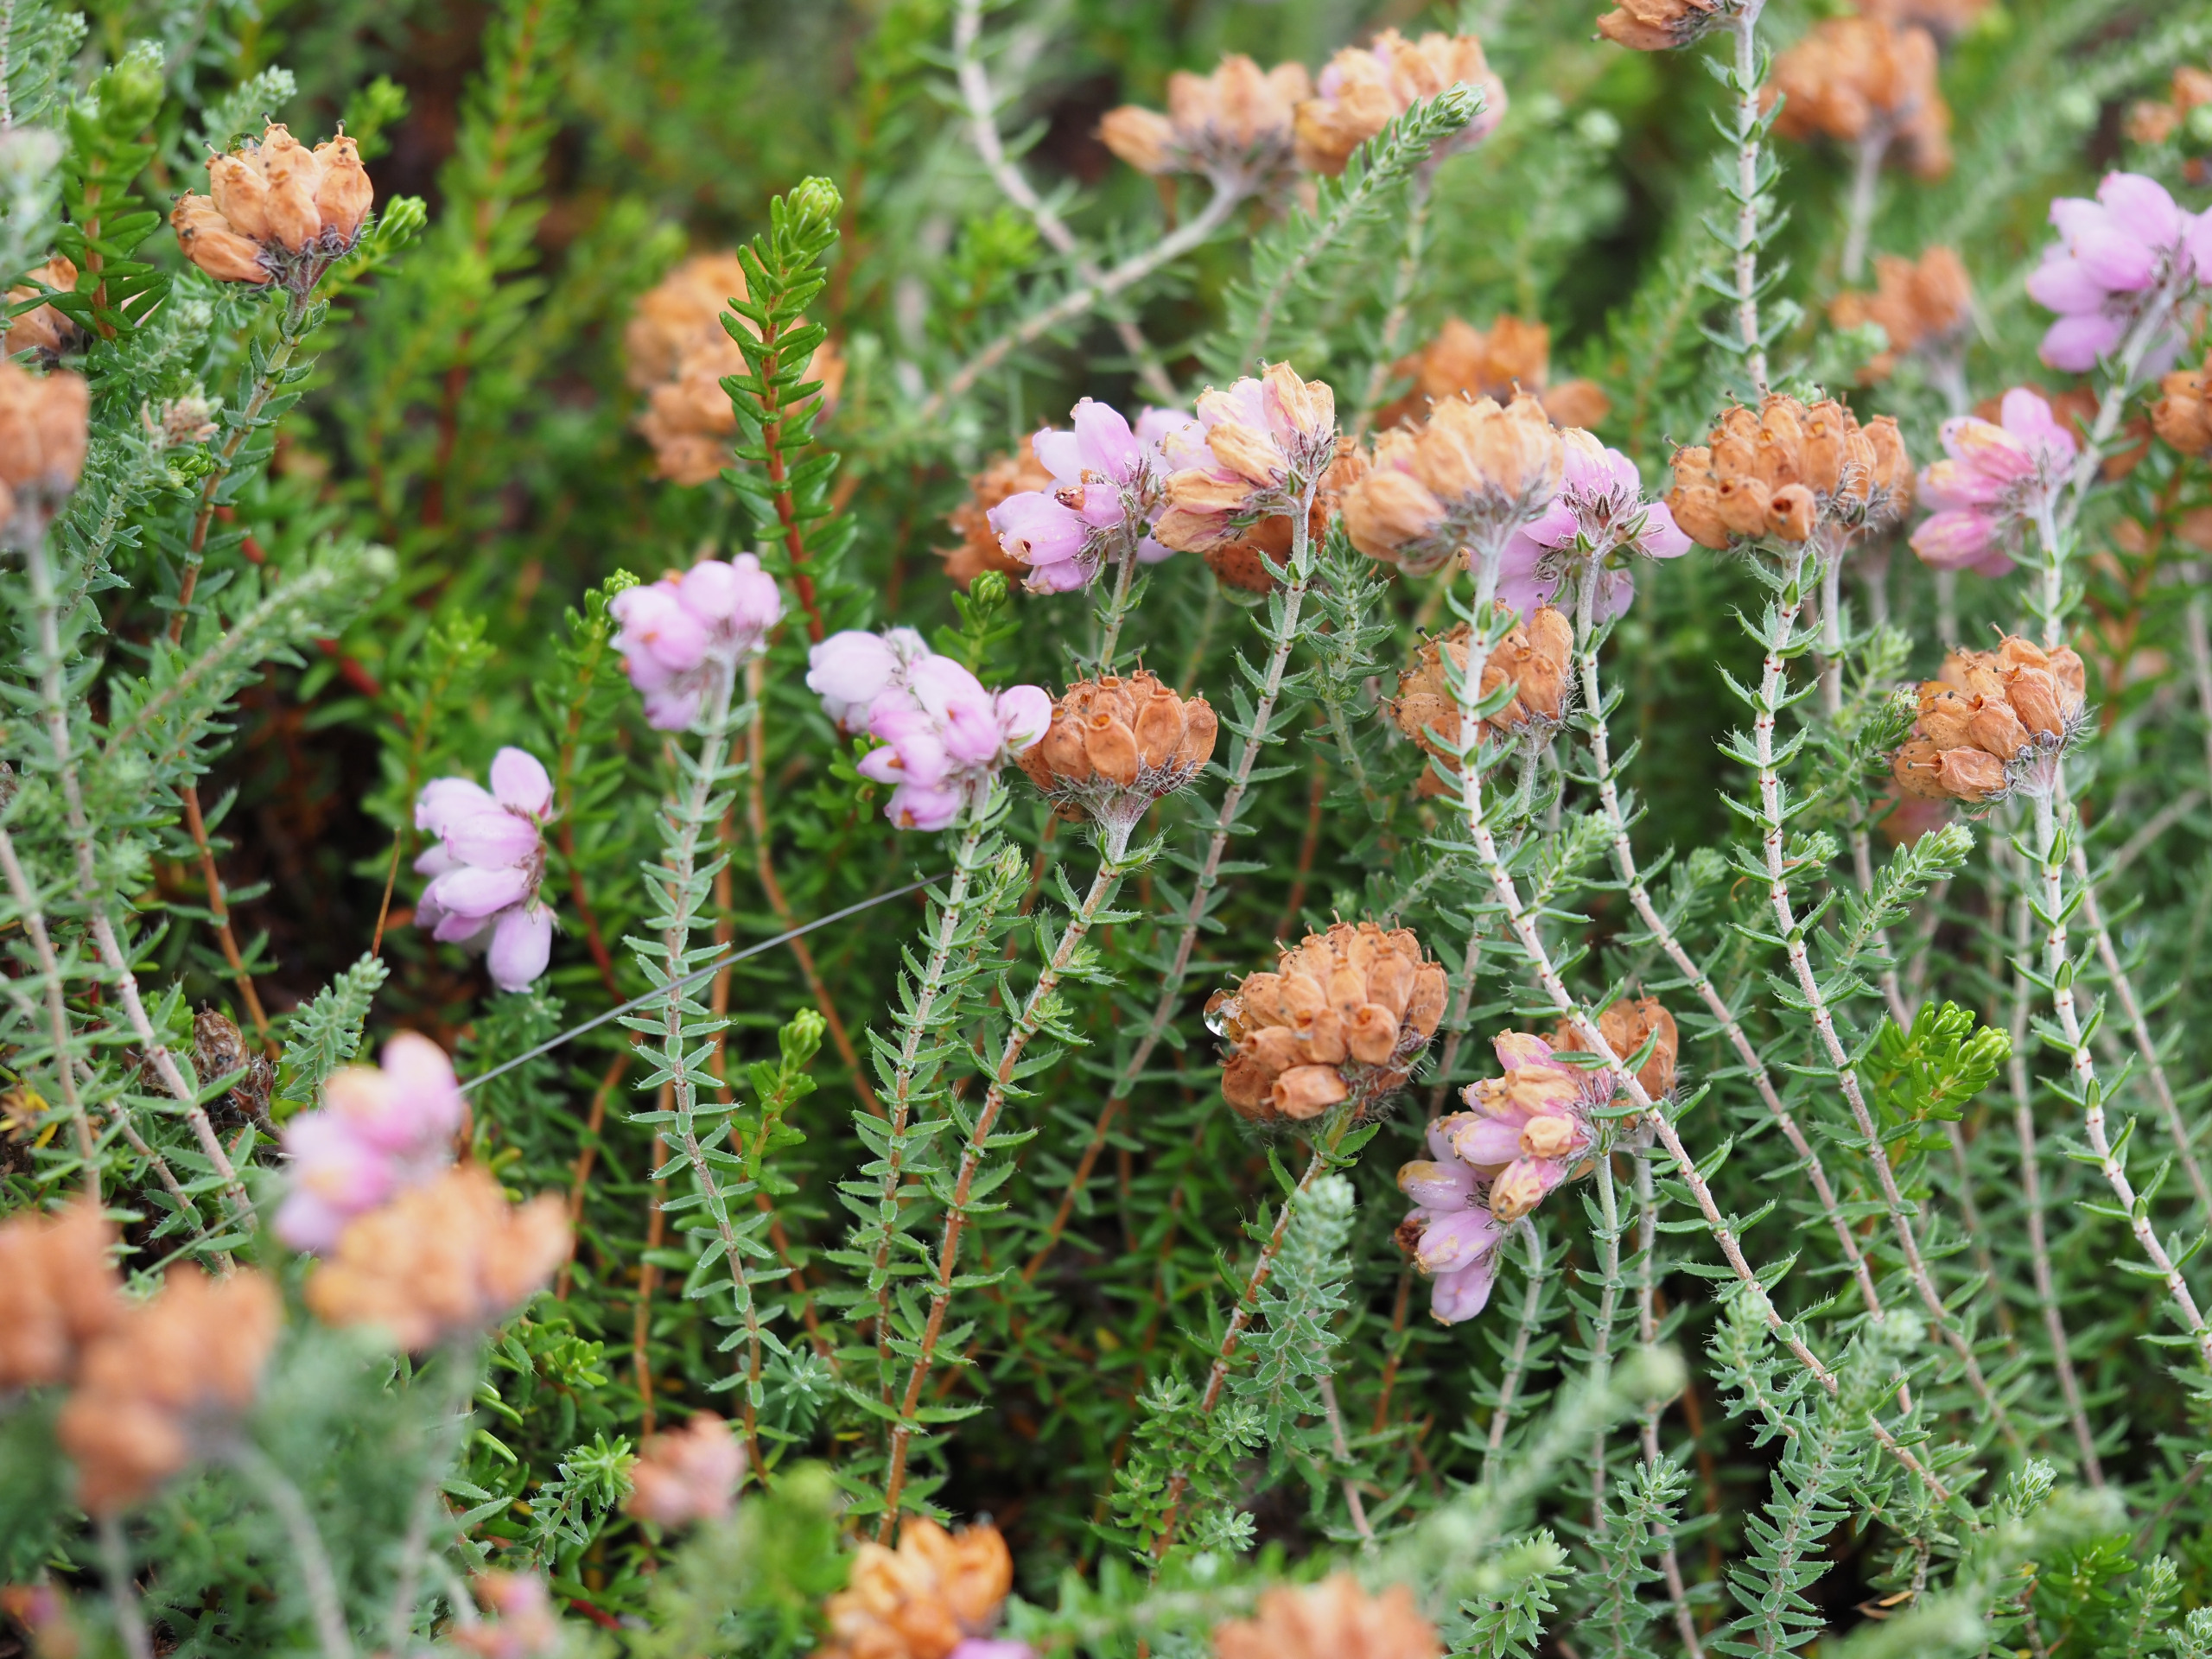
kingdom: Plantae
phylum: Tracheophyta
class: Magnoliopsida
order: Ericales
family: Ericaceae
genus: Erica
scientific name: Erica tetralix
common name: Klokkelyng
